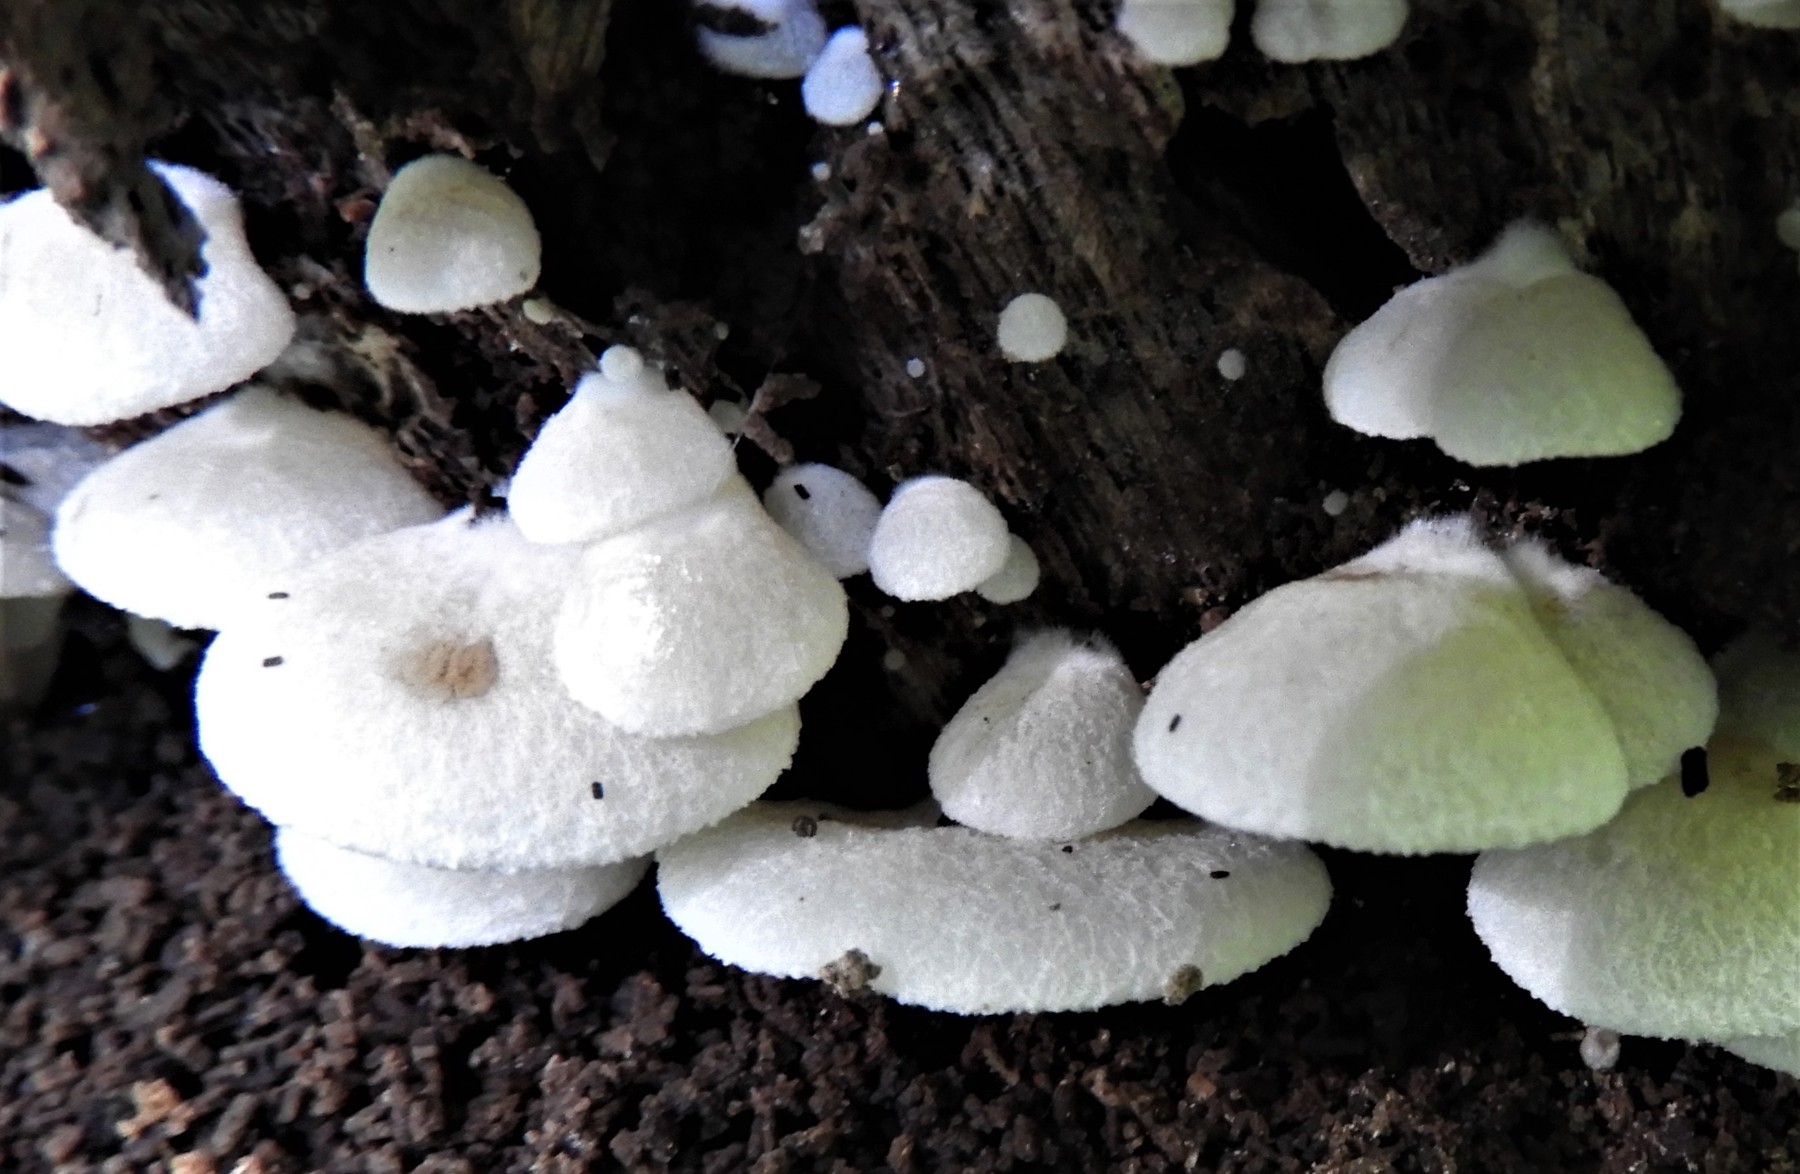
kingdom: Fungi
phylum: Basidiomycota
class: Agaricomycetes
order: Agaricales
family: Crepidotaceae
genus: Crepidotus
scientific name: Crepidotus
